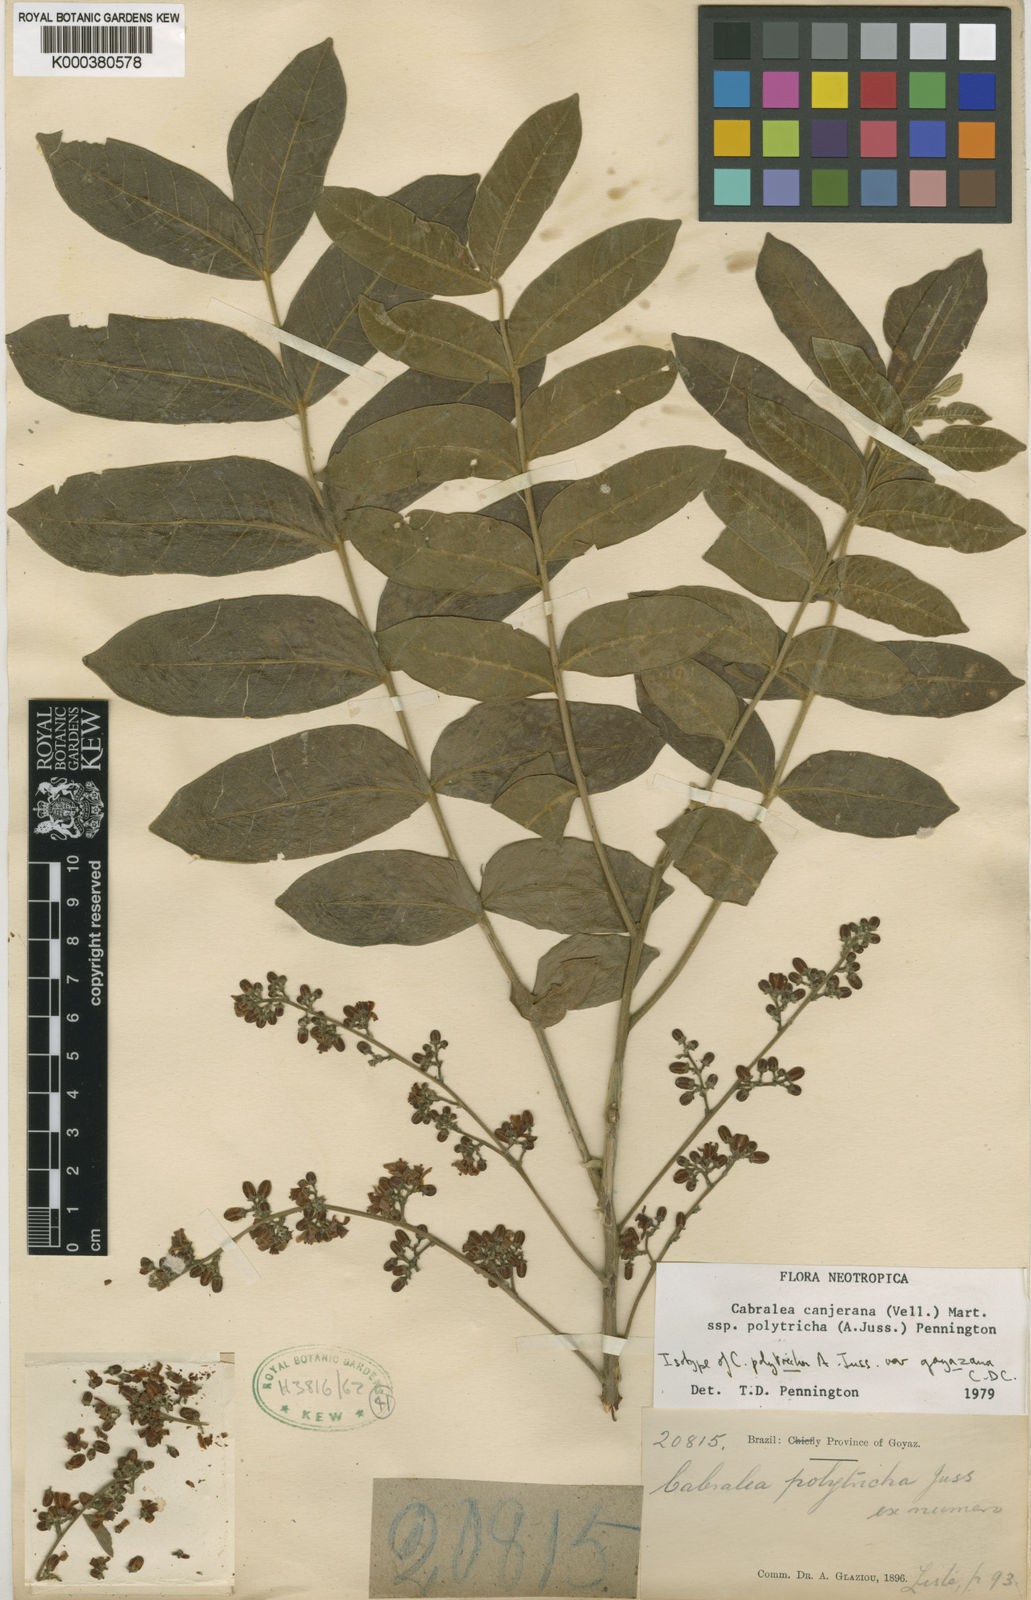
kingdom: Plantae
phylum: Tracheophyta
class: Magnoliopsida
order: Sapindales
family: Meliaceae
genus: Cabralea
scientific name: Cabralea canjerana
